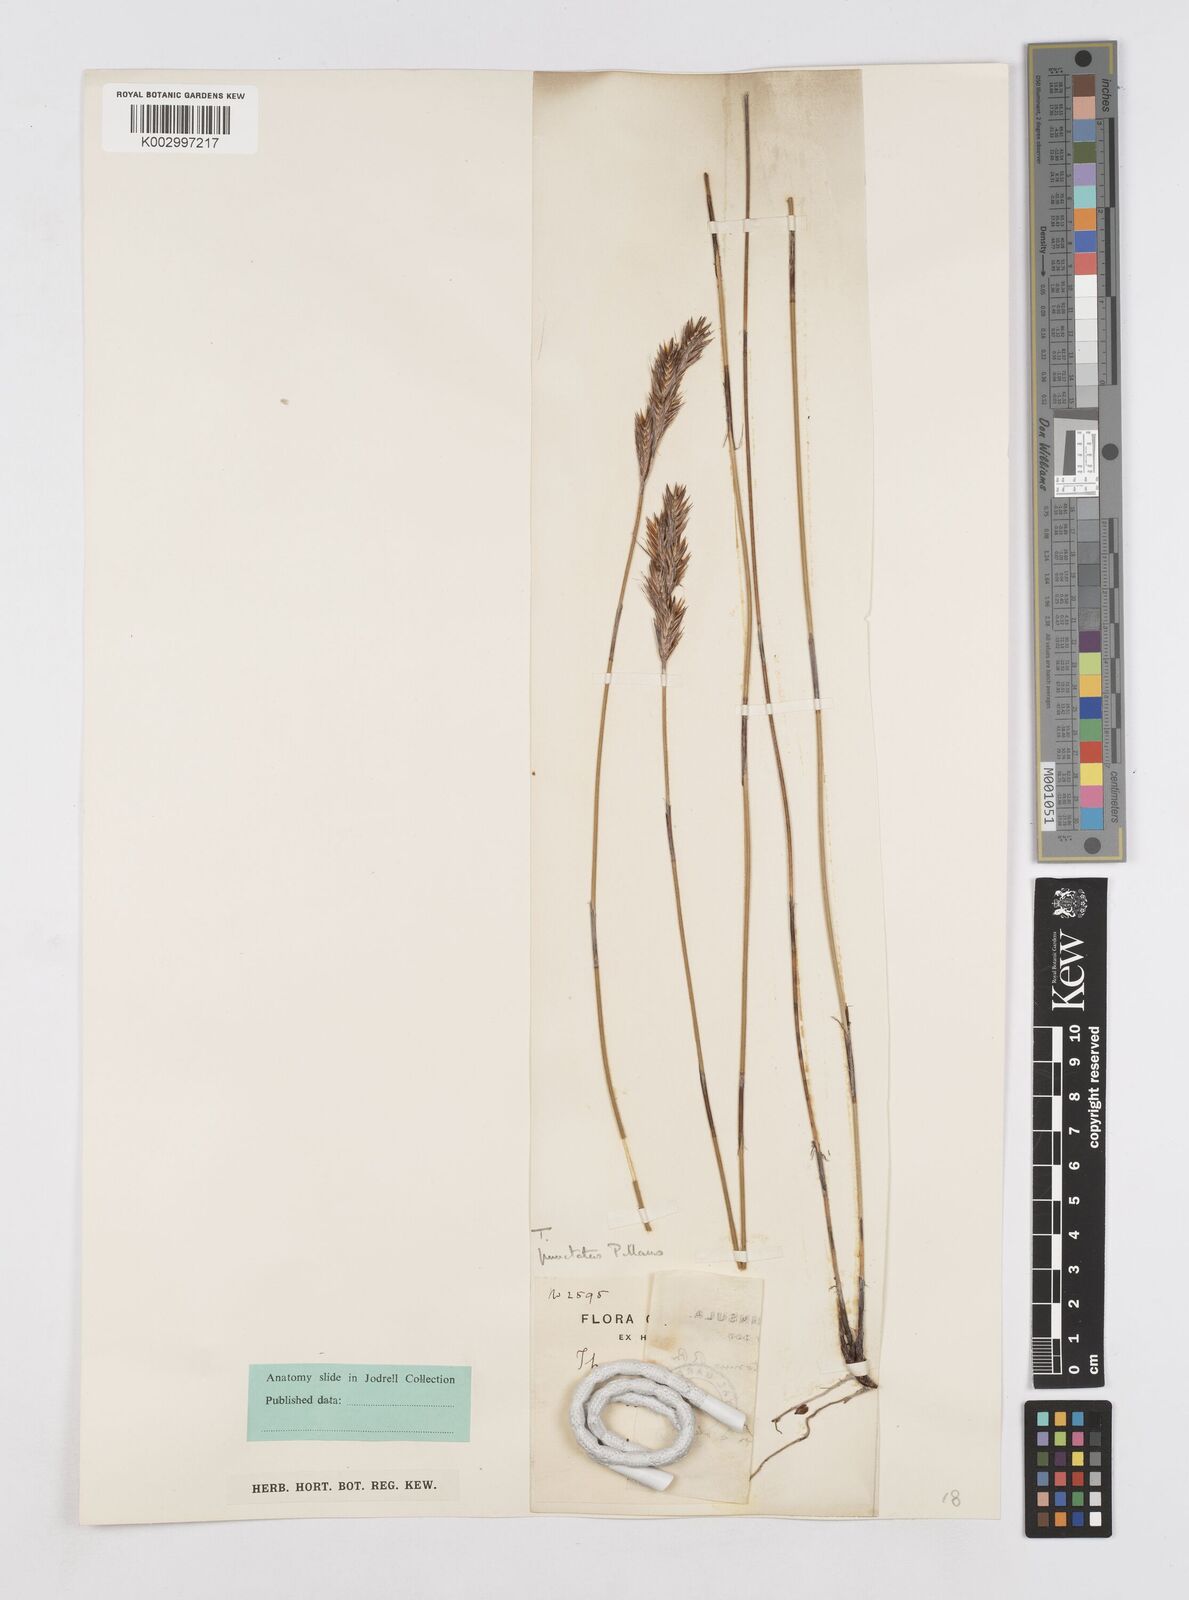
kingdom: Plantae
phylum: Tracheophyta
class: Liliopsida
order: Poales
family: Restionaceae
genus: Thamnochortus
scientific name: Thamnochortus punctatus
